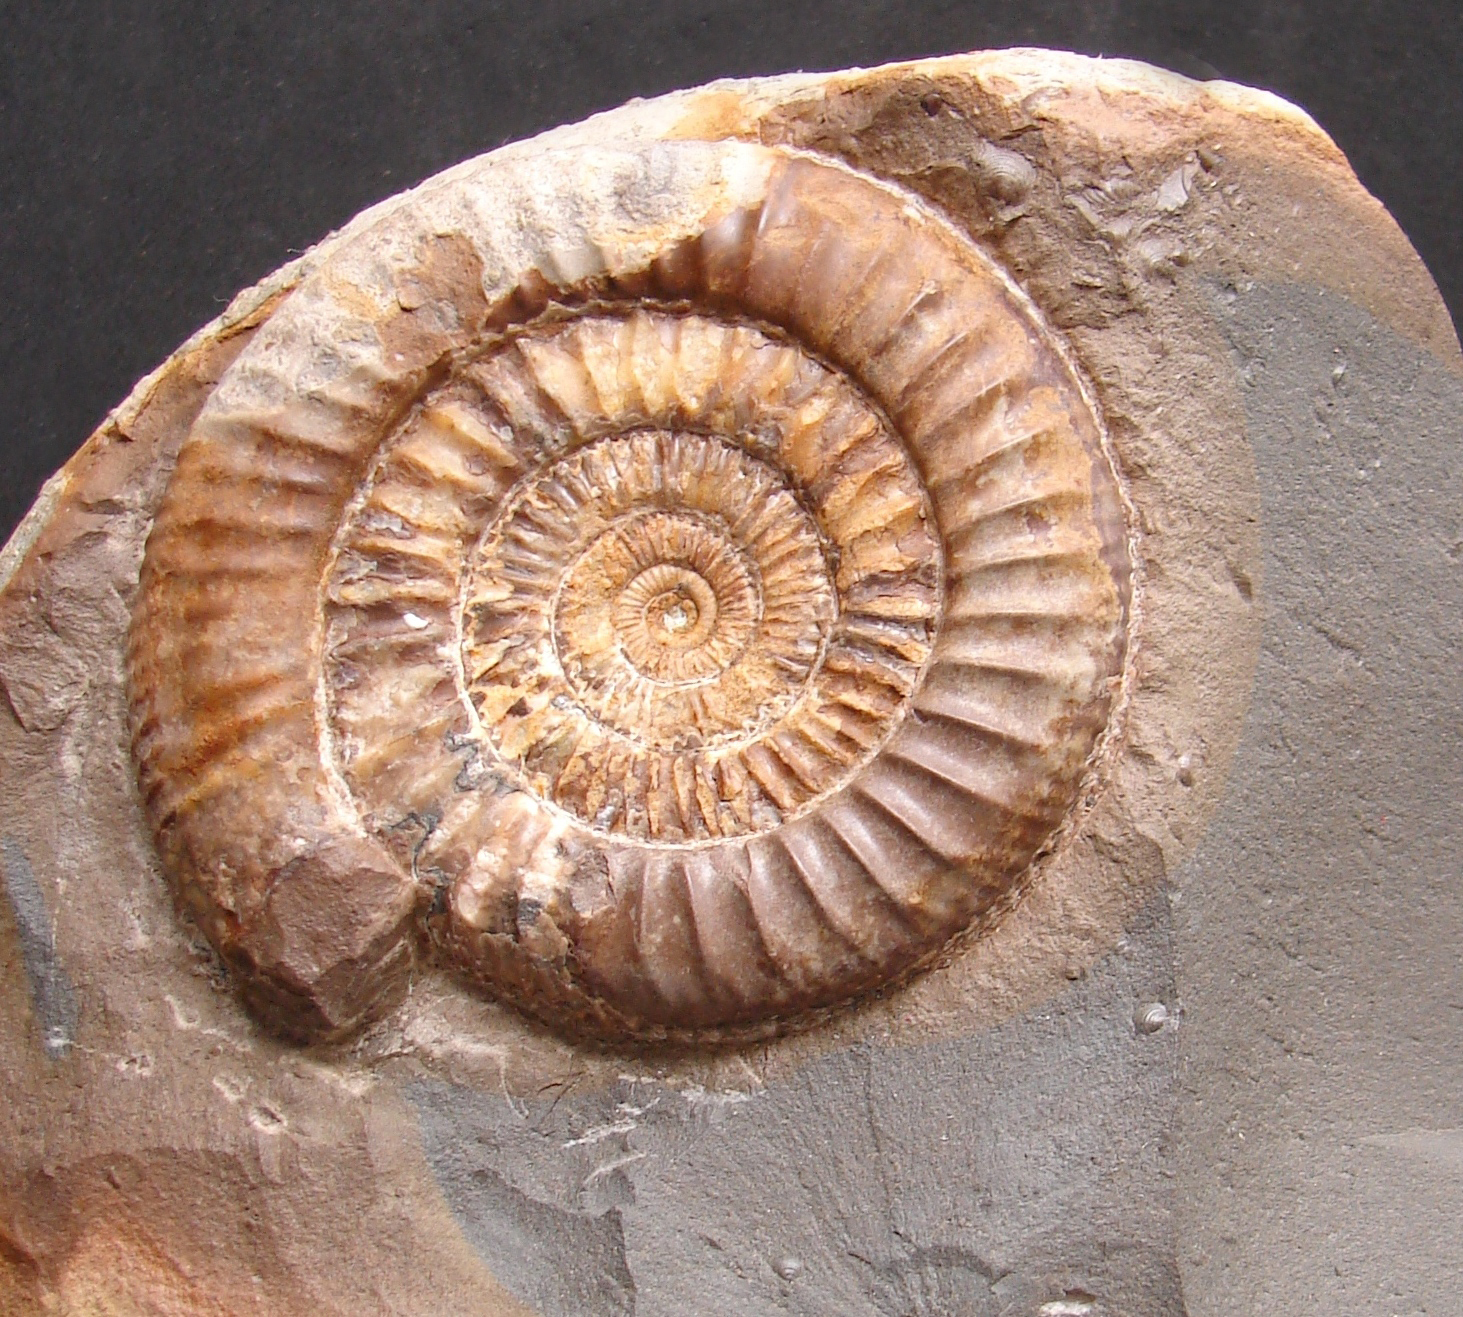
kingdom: Animalia
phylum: Mollusca
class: Cephalopoda
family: Dactylioceratidae
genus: Dactylioceras
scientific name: Dactylioceras athleticum
